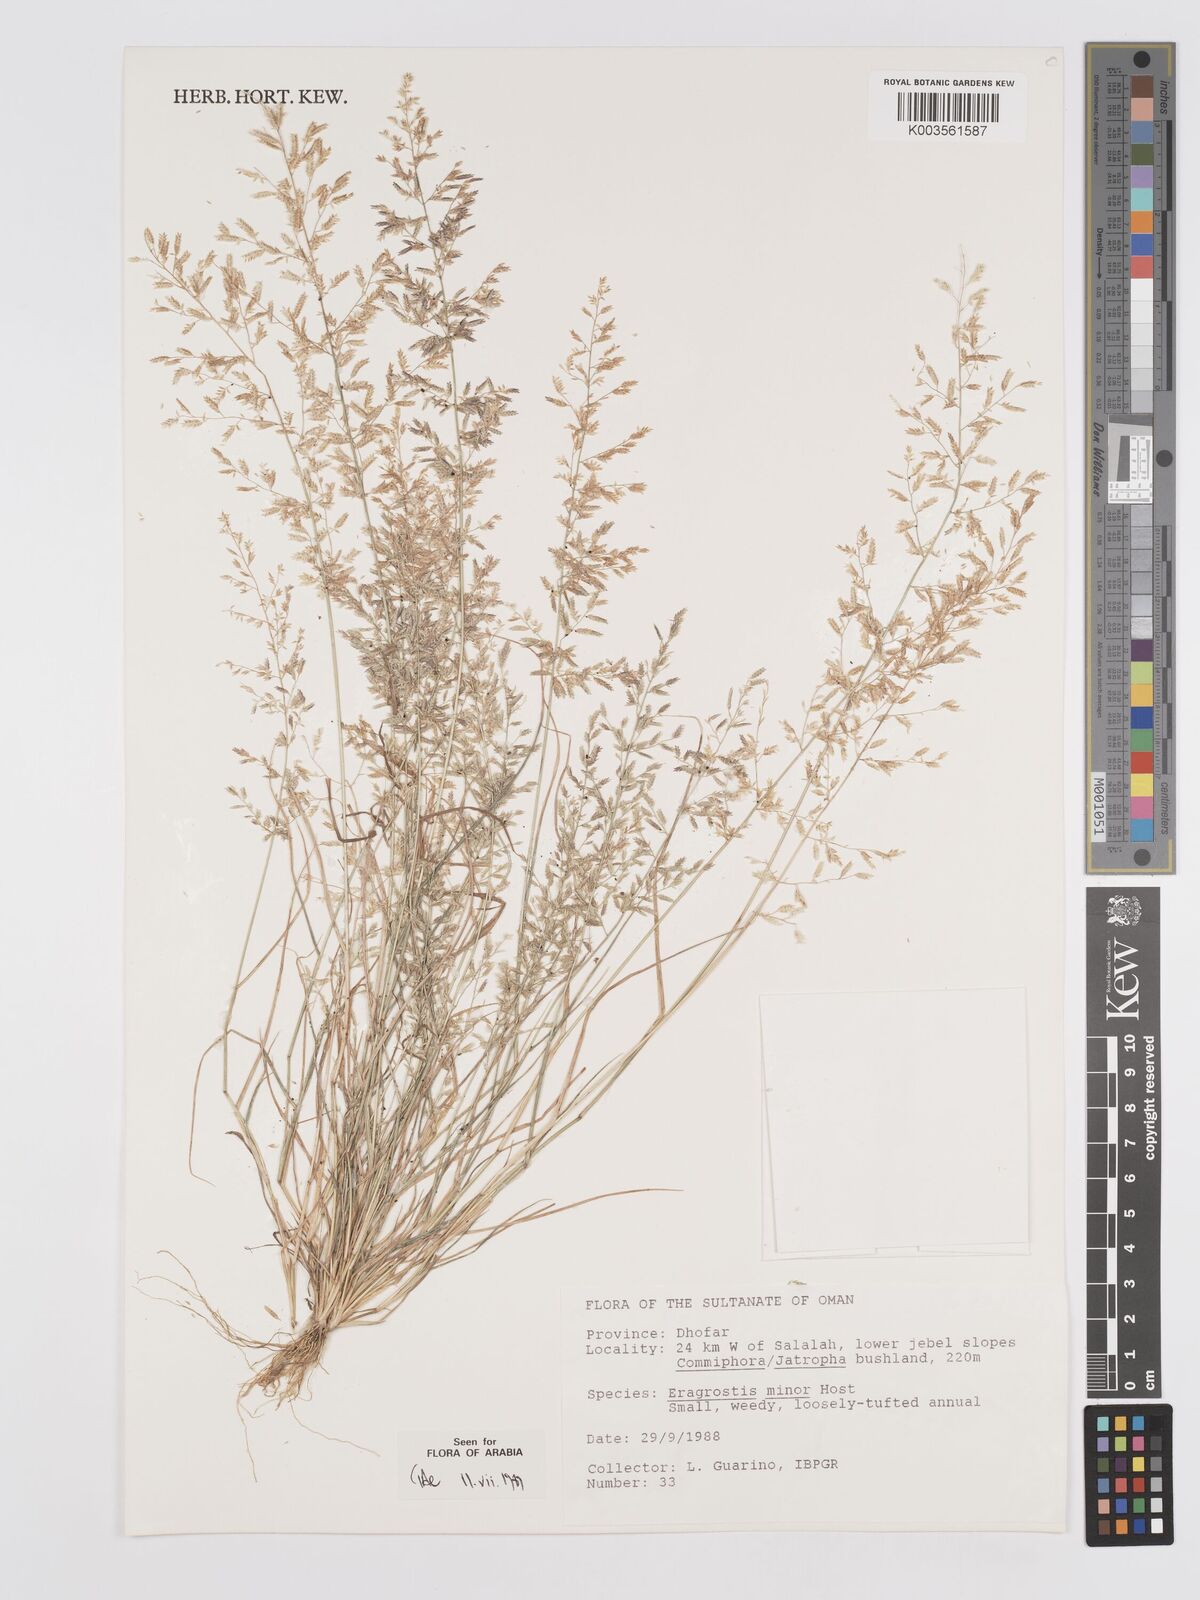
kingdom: Plantae
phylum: Tracheophyta
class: Liliopsida
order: Poales
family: Poaceae
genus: Eragrostis
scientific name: Eragrostis minor
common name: Small love-grass
